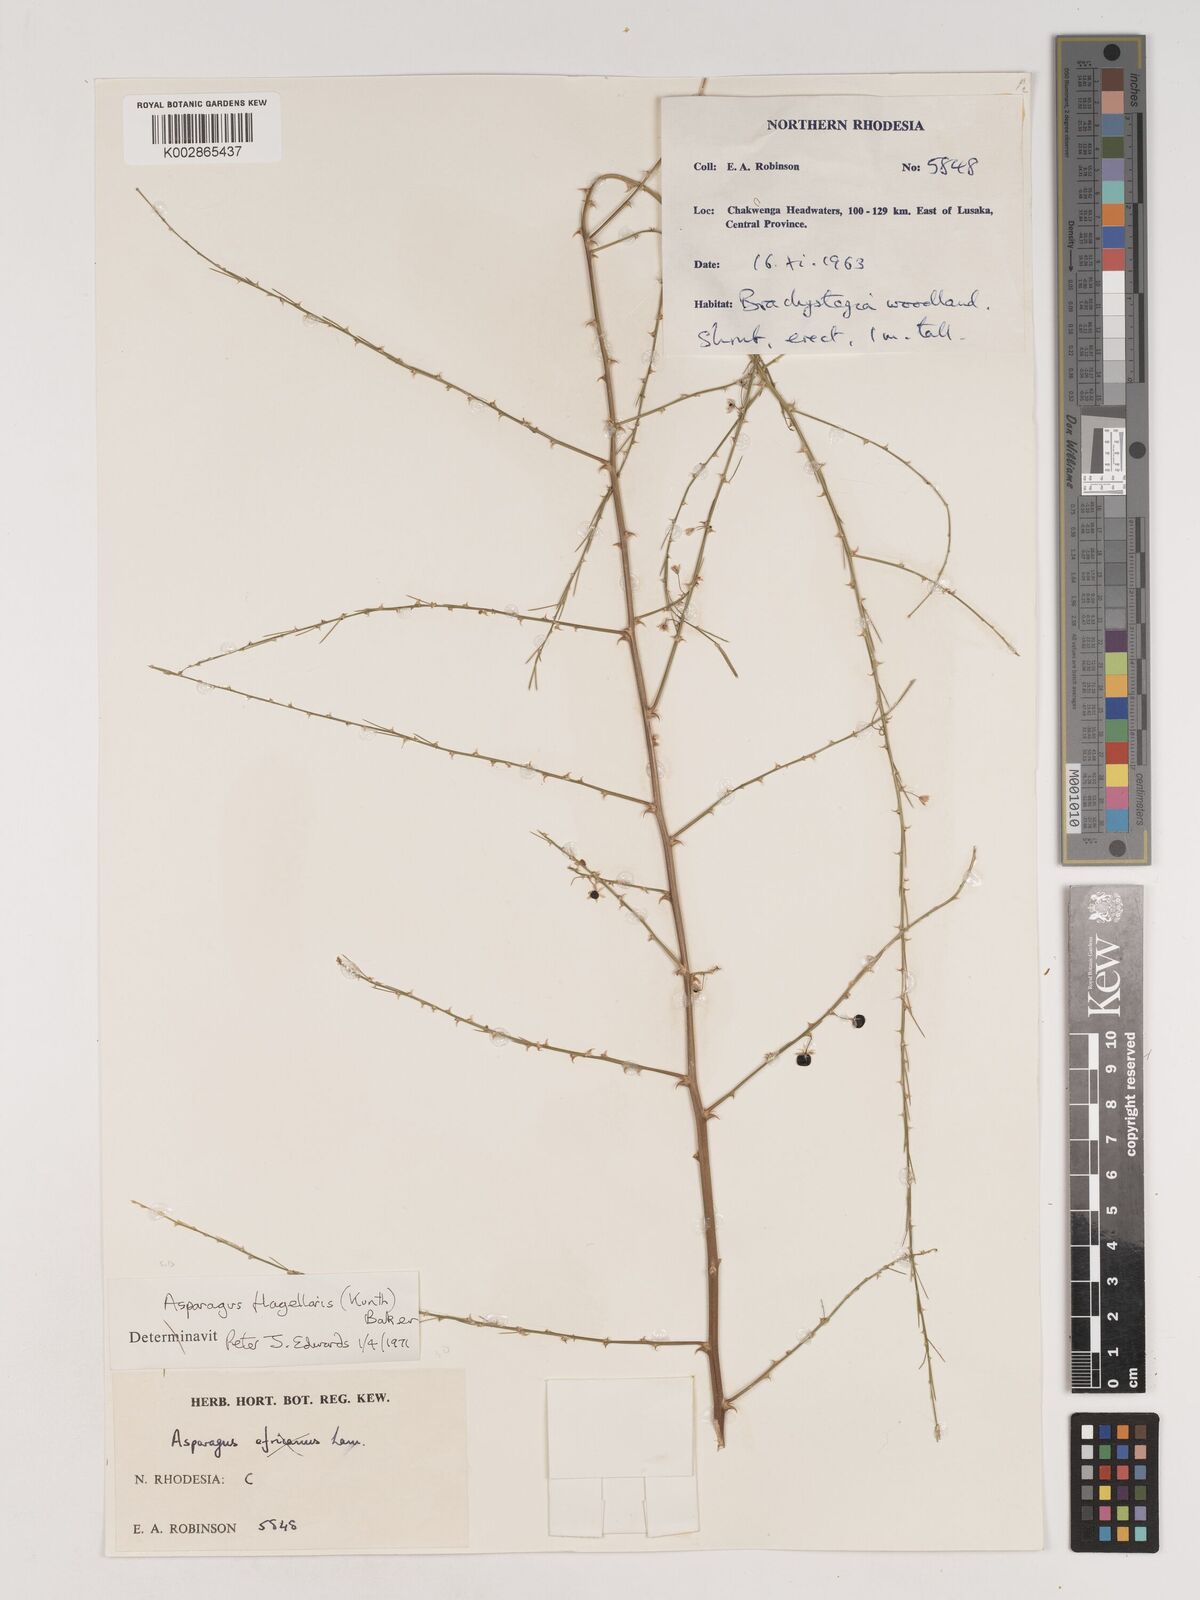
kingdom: Plantae
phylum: Tracheophyta
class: Liliopsida
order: Asparagales
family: Asparagaceae
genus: Asparagus
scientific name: Asparagus flagellaris
